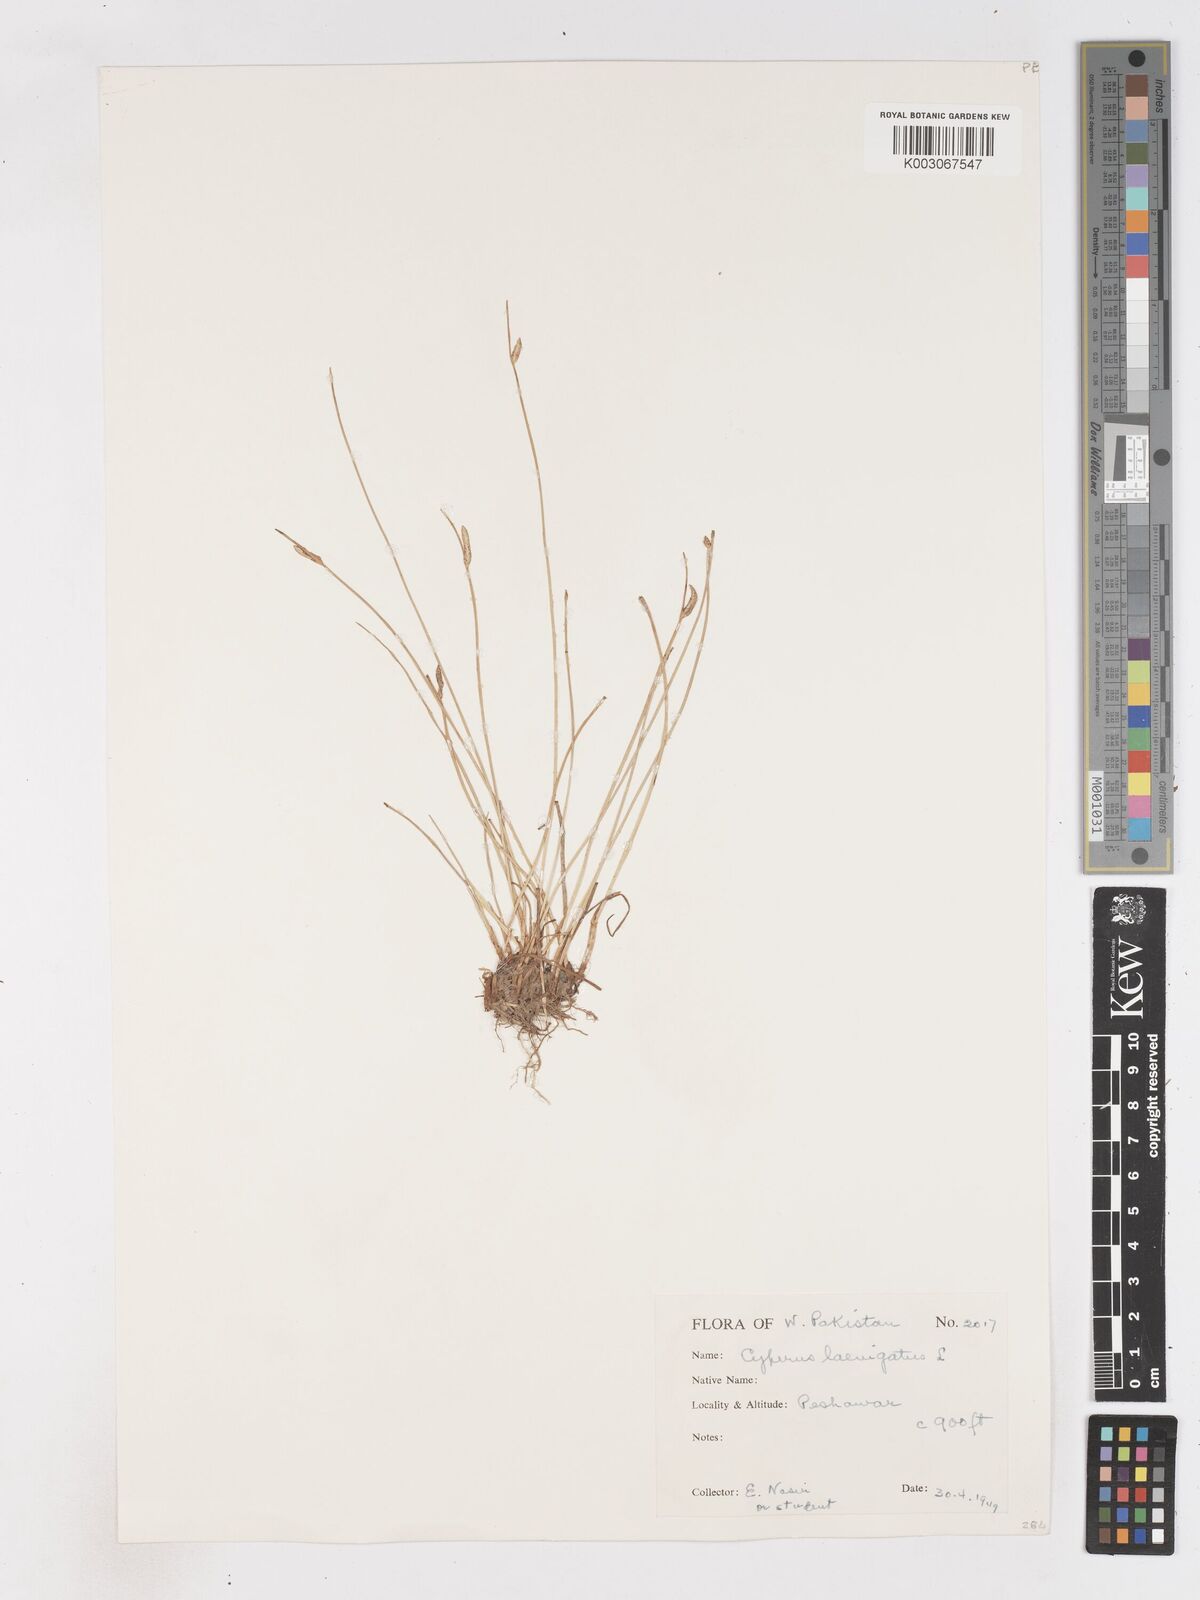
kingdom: Plantae
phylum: Tracheophyta
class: Liliopsida
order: Poales
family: Cyperaceae
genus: Cyperus
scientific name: Cyperus laevigatus
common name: Smooth flat sedge
